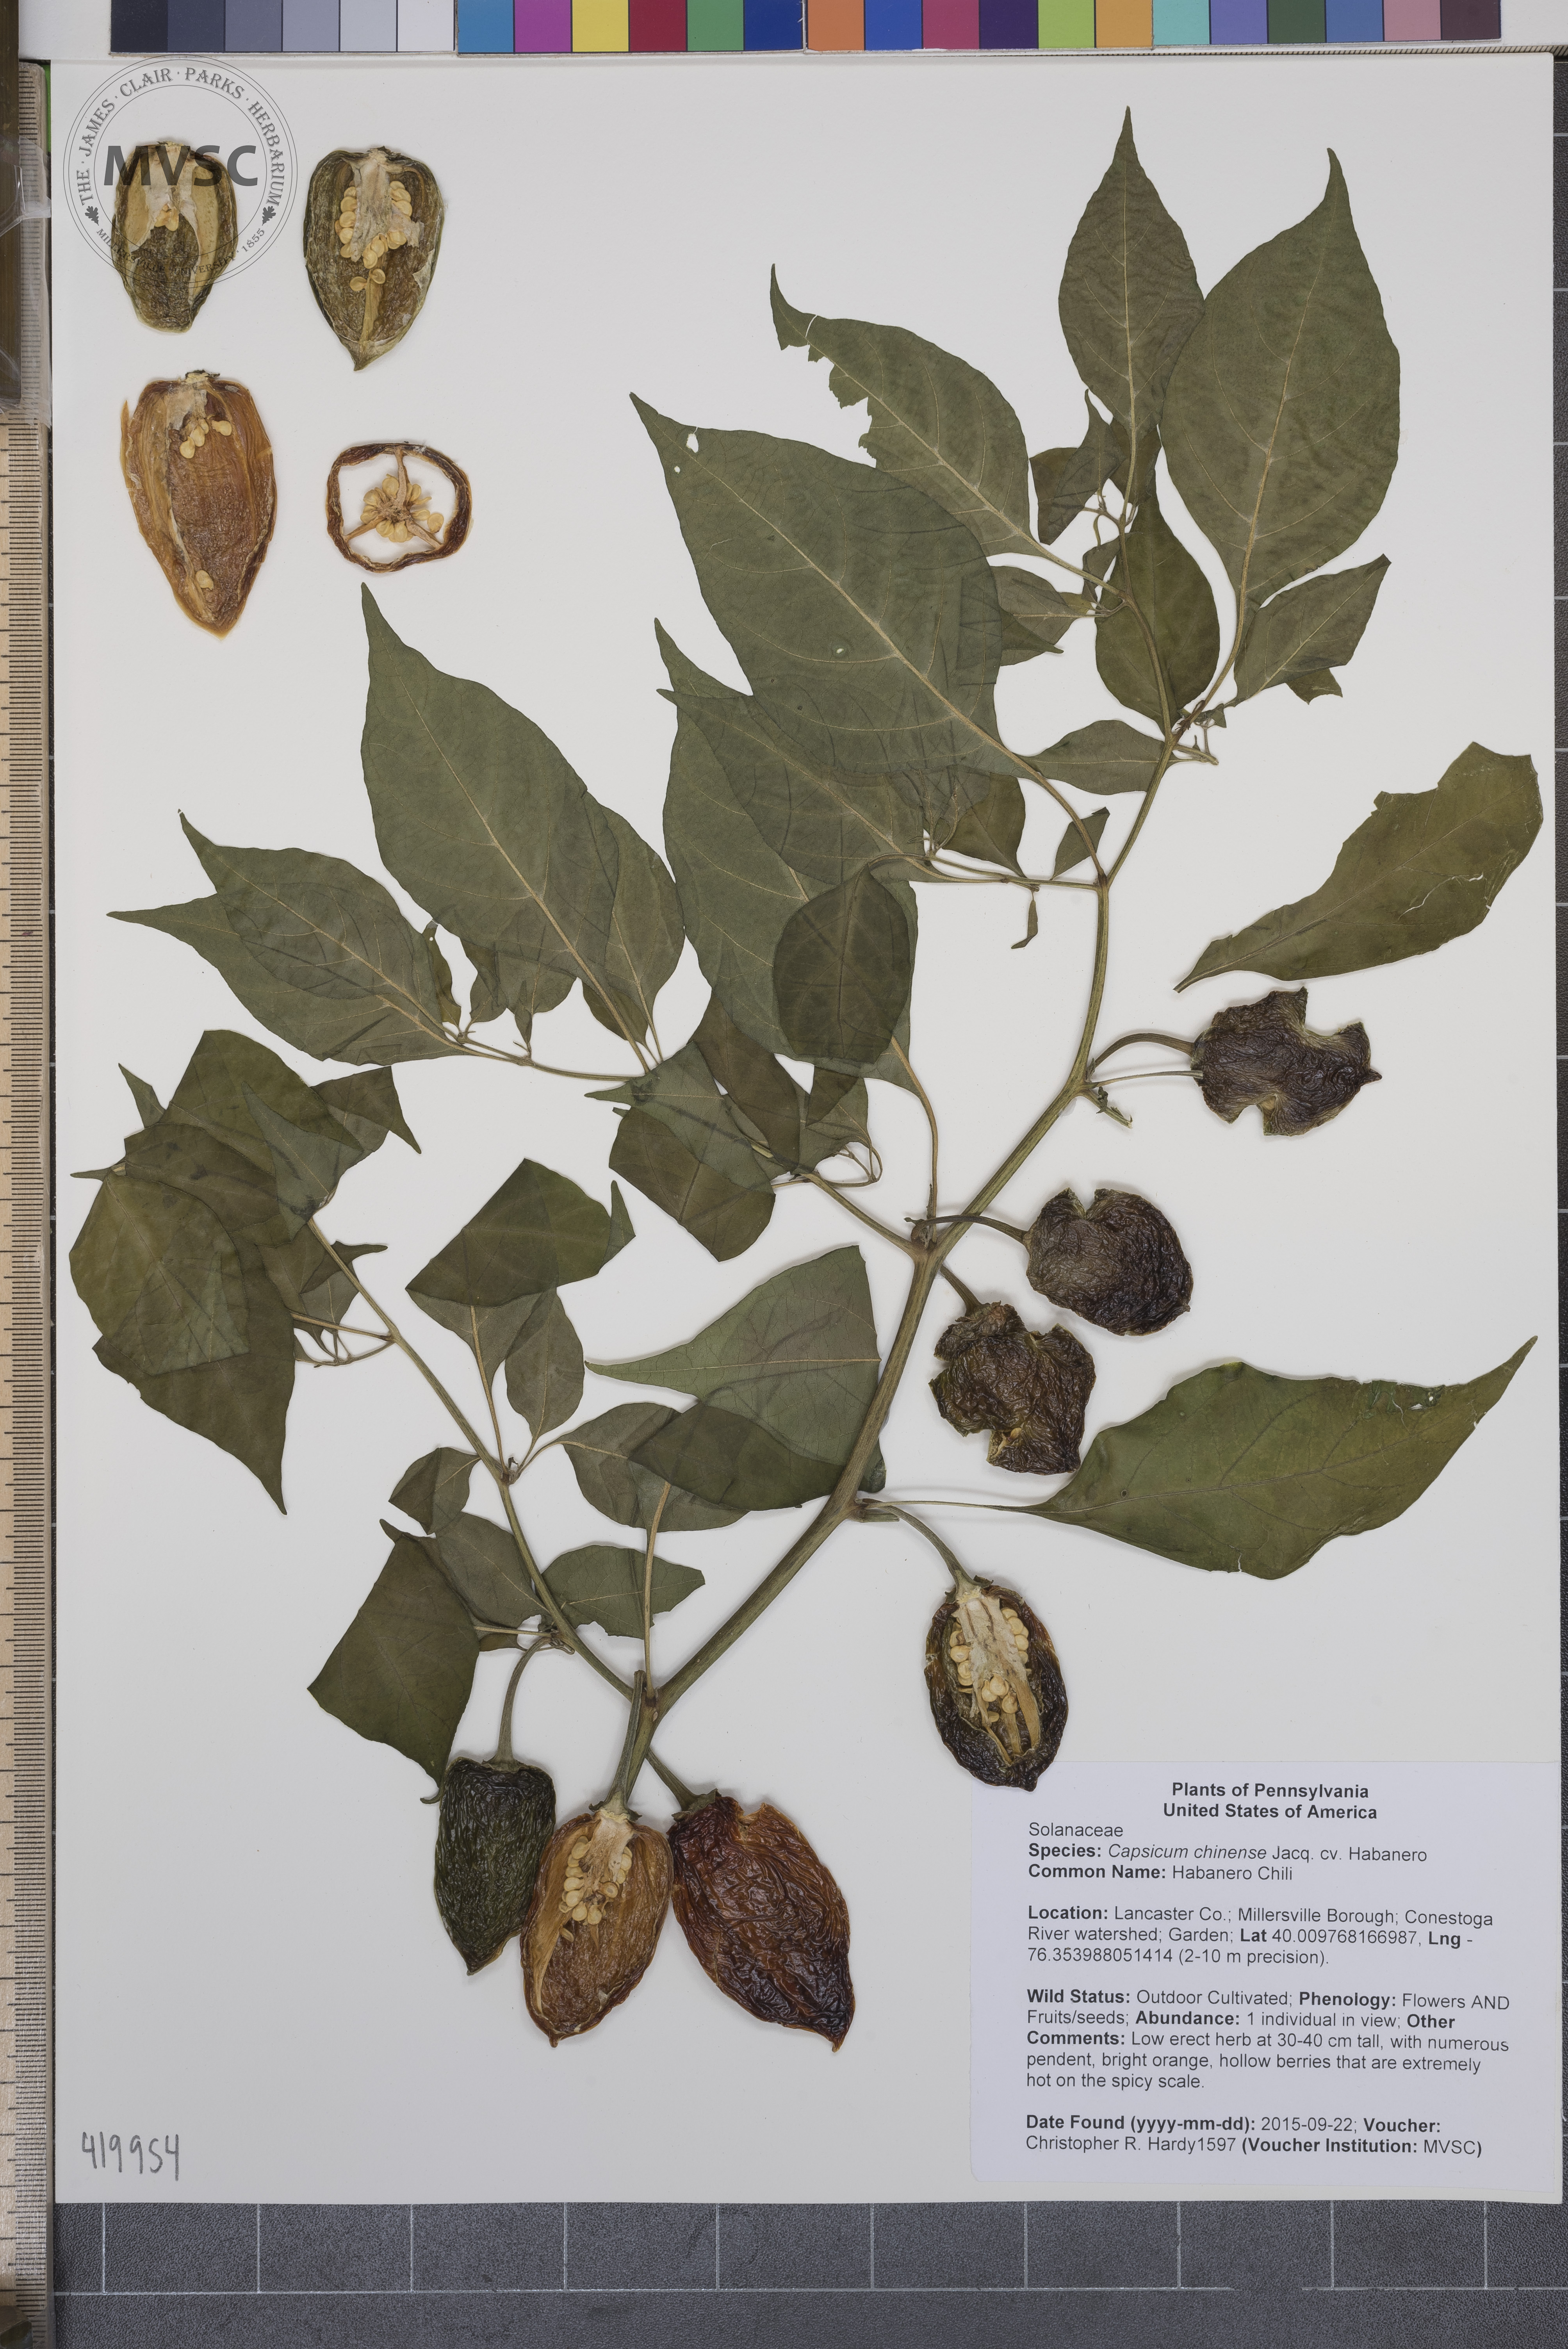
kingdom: Plantae
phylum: Tracheophyta
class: Magnoliopsida
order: Solanales
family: Solanaceae
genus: Capsicum
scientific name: Capsicum chinense
